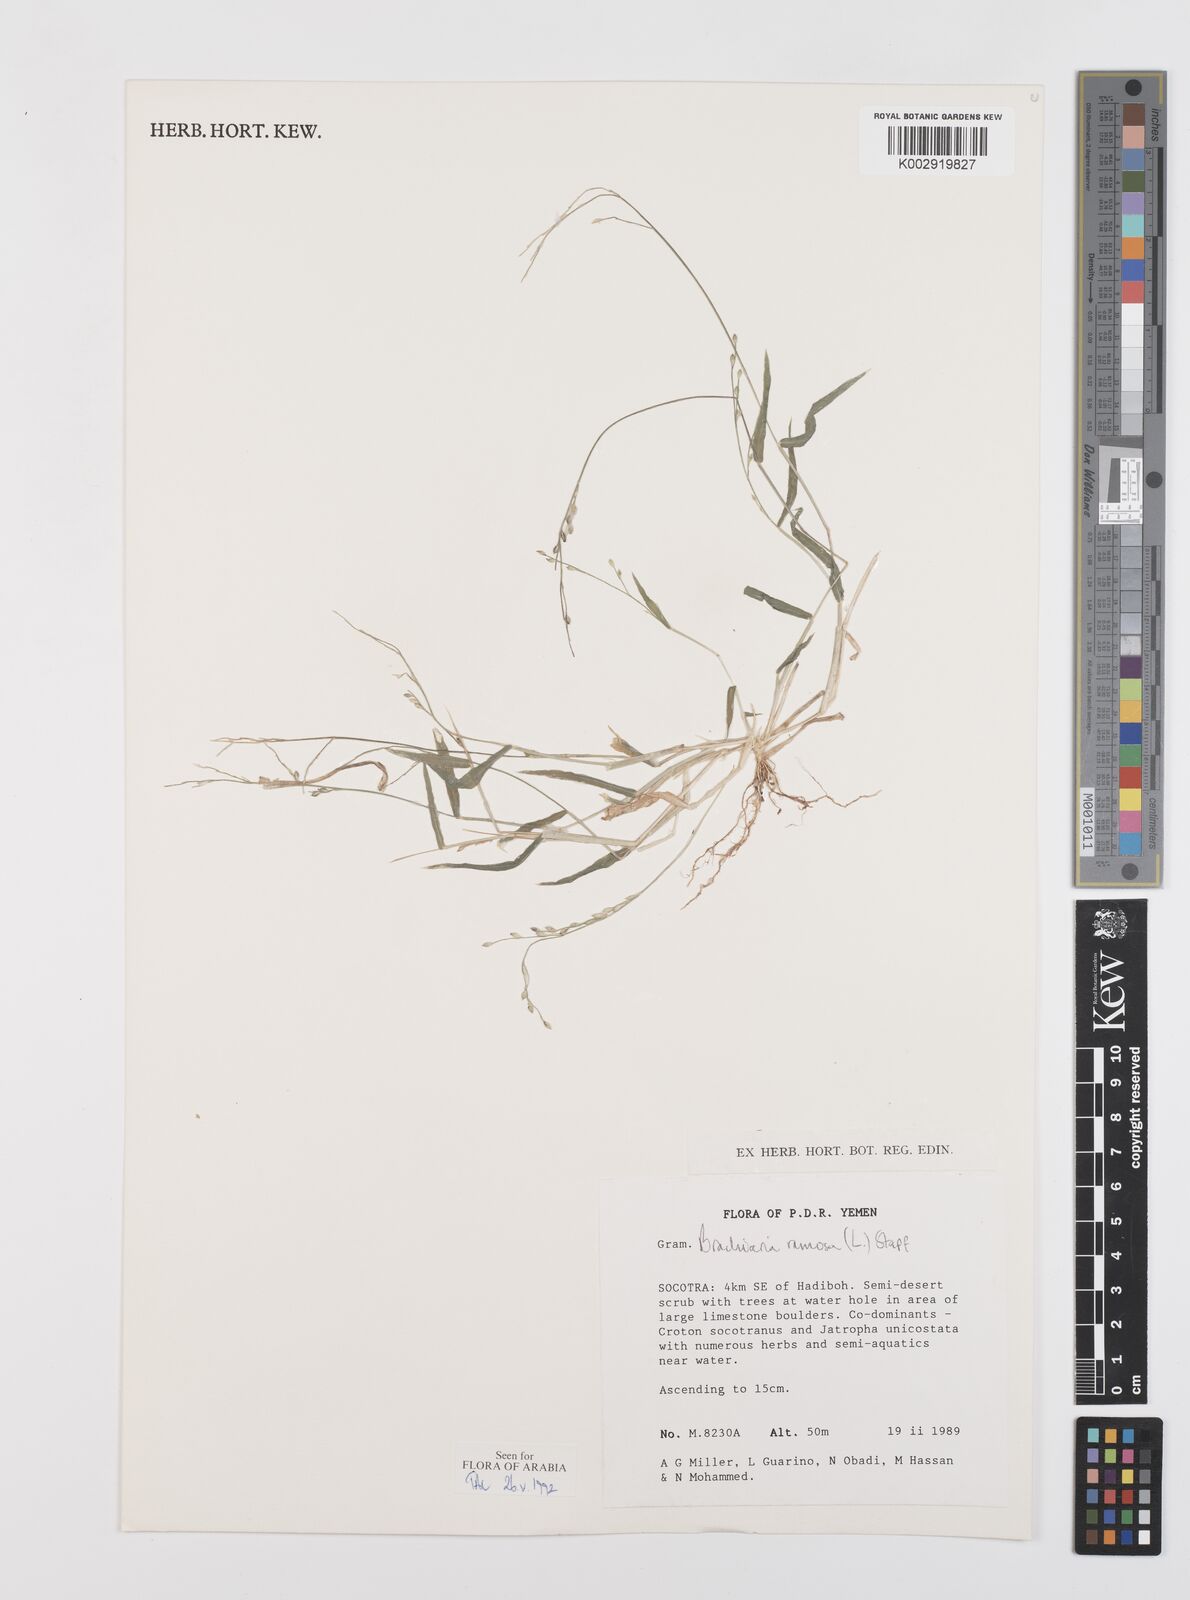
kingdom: Plantae
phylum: Tracheophyta
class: Liliopsida
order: Poales
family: Poaceae
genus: Urochloa
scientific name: Urochloa ramosa
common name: Browntop millet
